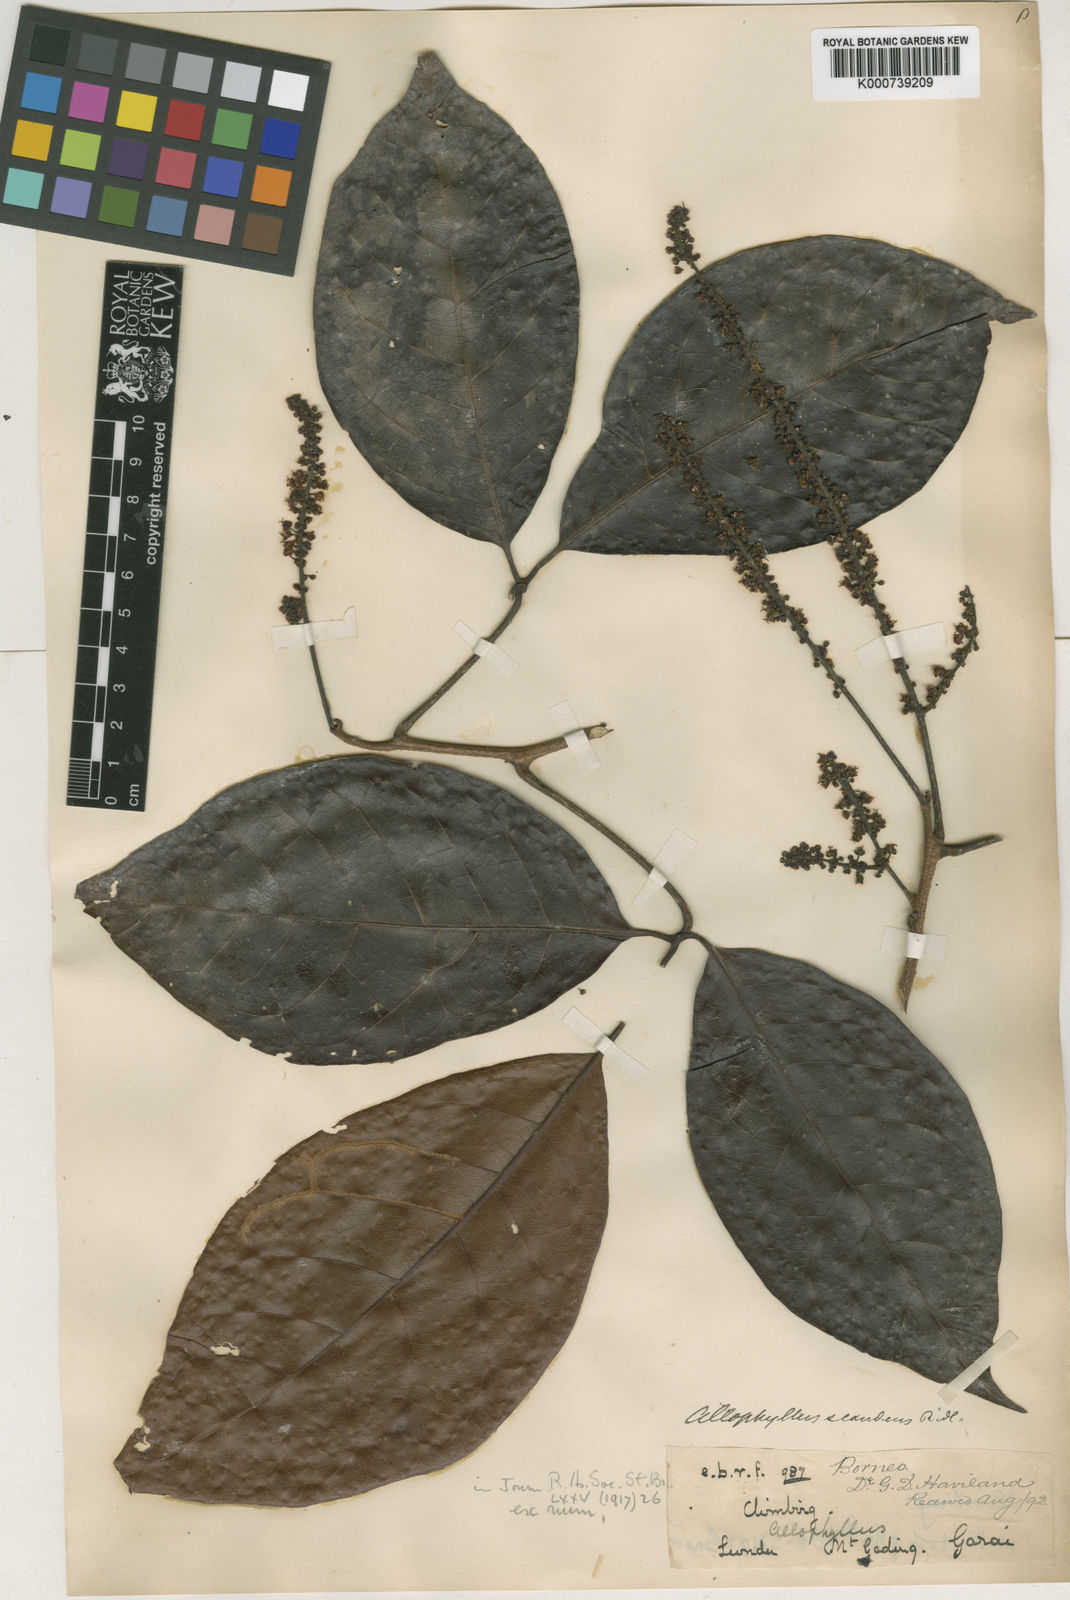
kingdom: Plantae
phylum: Tracheophyta
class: Magnoliopsida
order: Sapindales
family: Sapindaceae
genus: Allophylus
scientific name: Allophylus scandens
